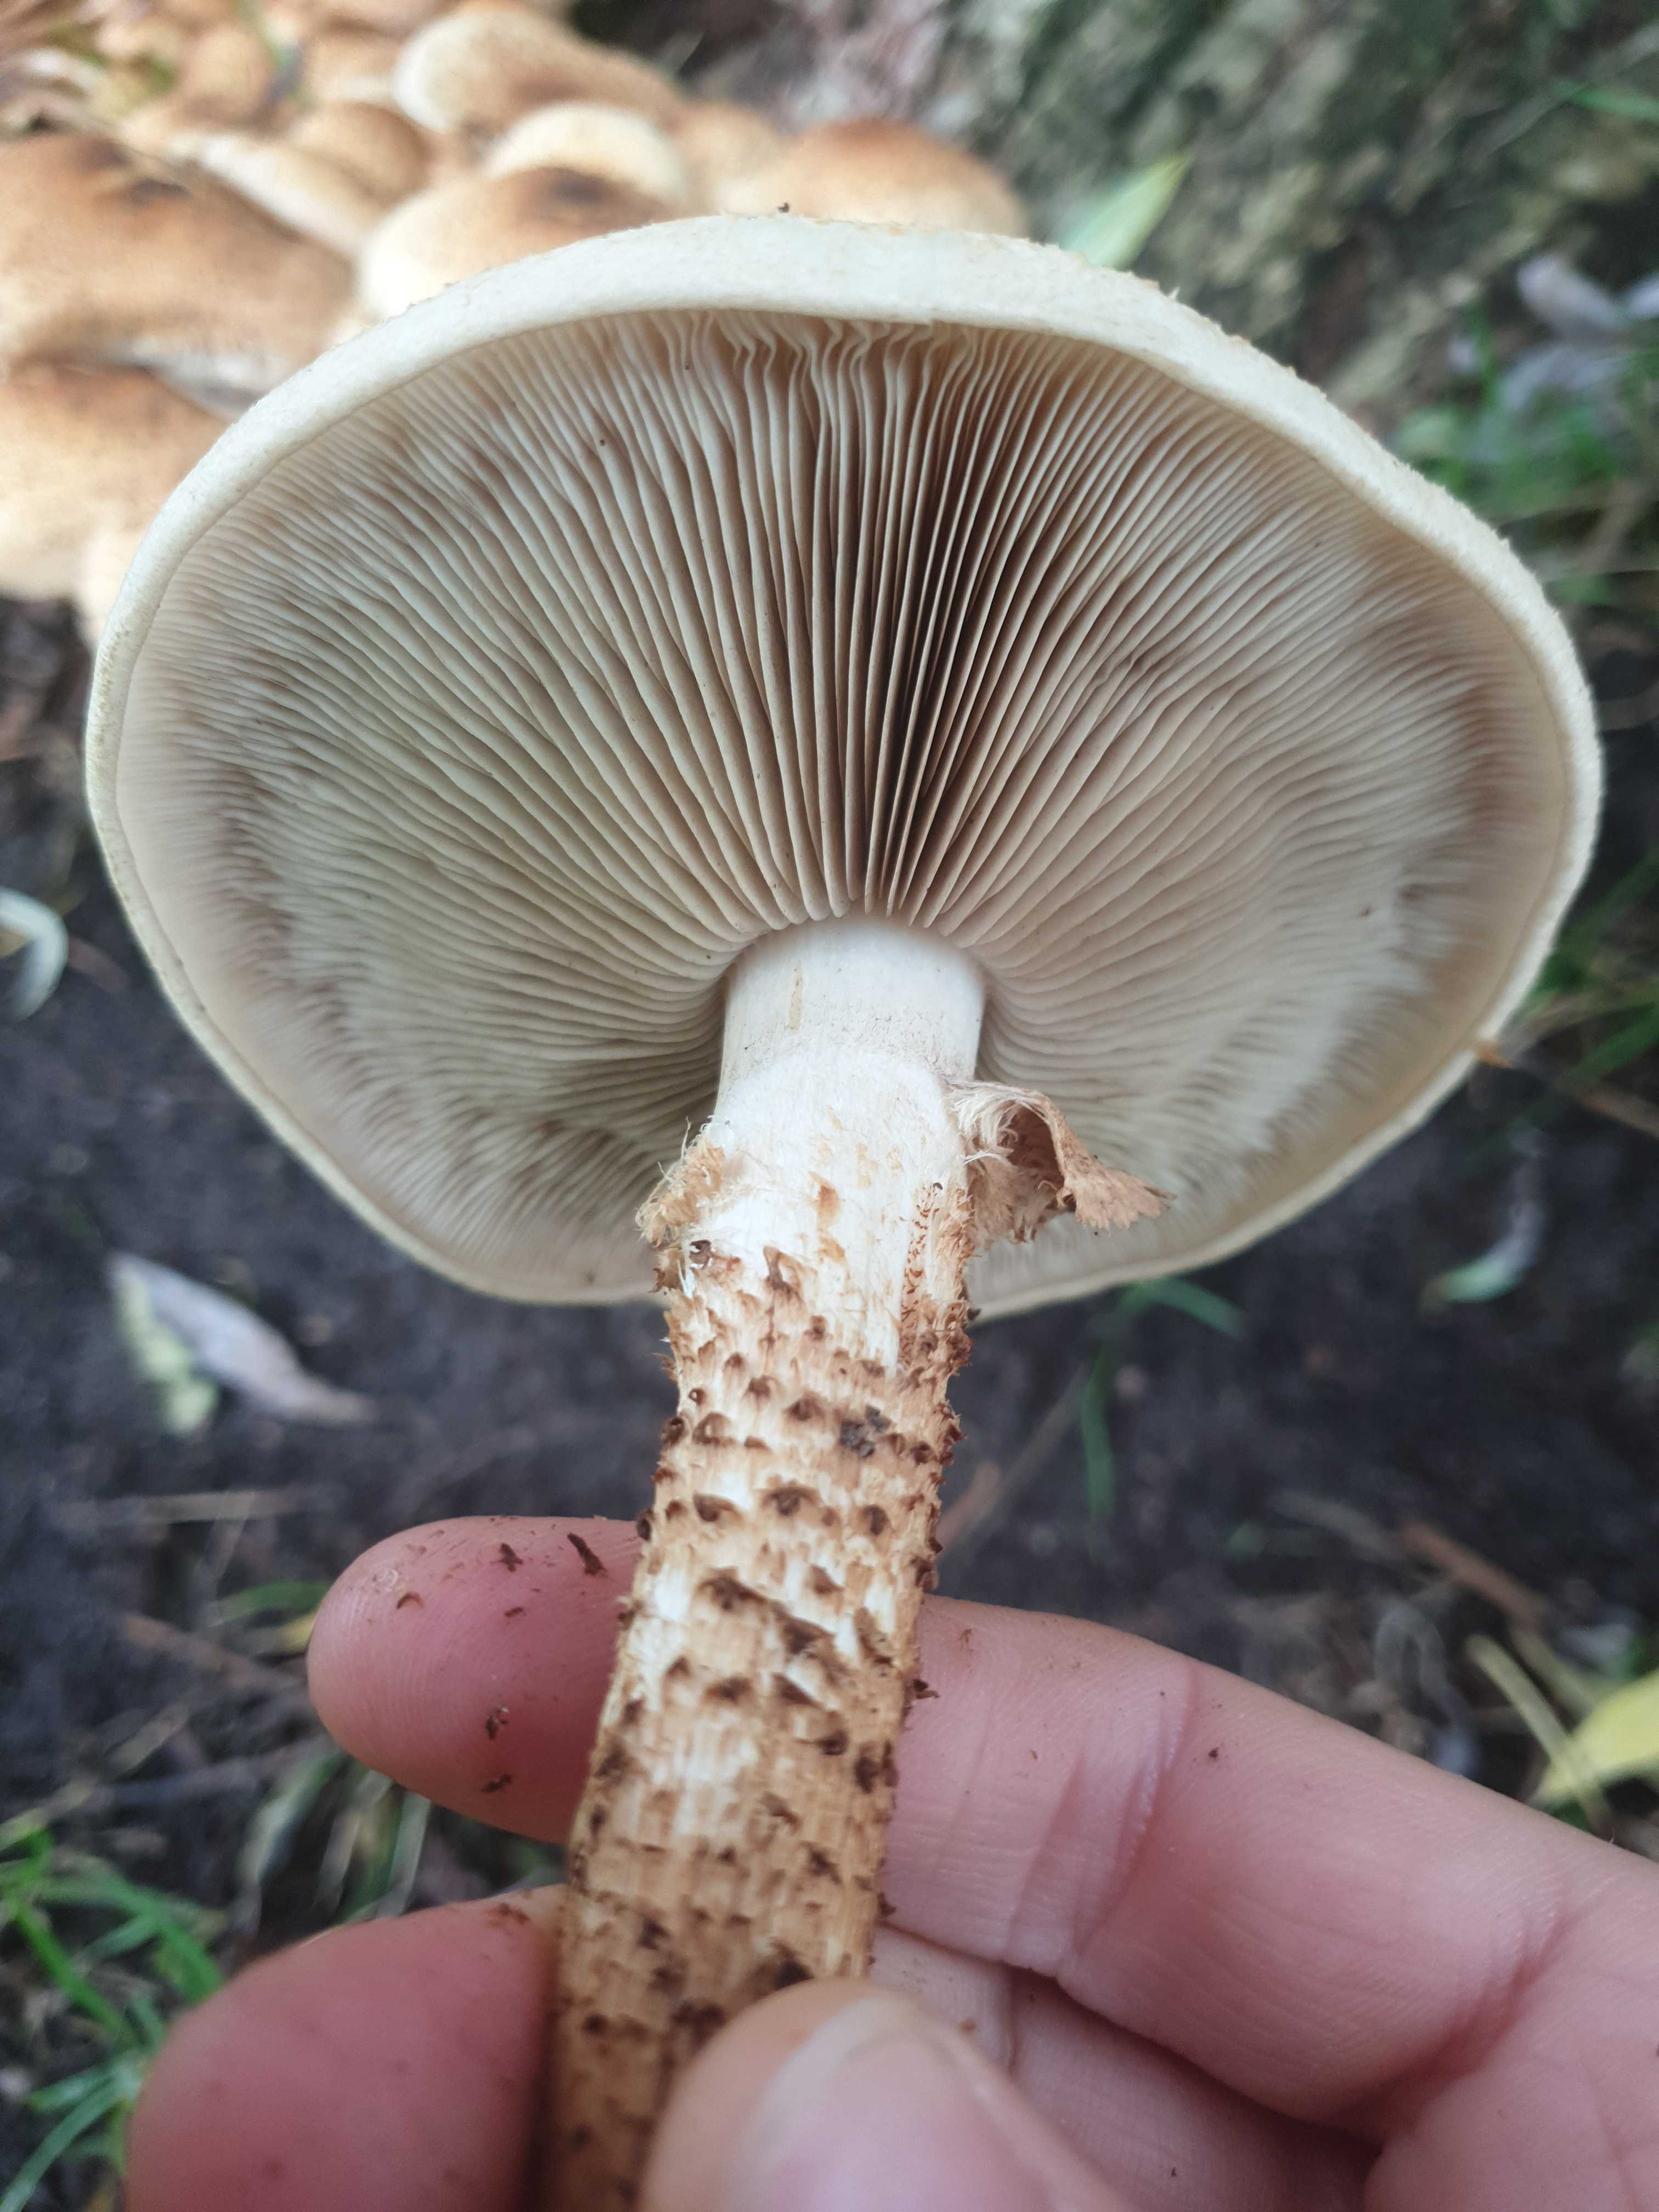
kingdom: Fungi
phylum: Basidiomycota
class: Agaricomycetes
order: Agaricales
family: Strophariaceae
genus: Pholiota
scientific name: Pholiota squarrosa
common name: krumskællet skælhat
